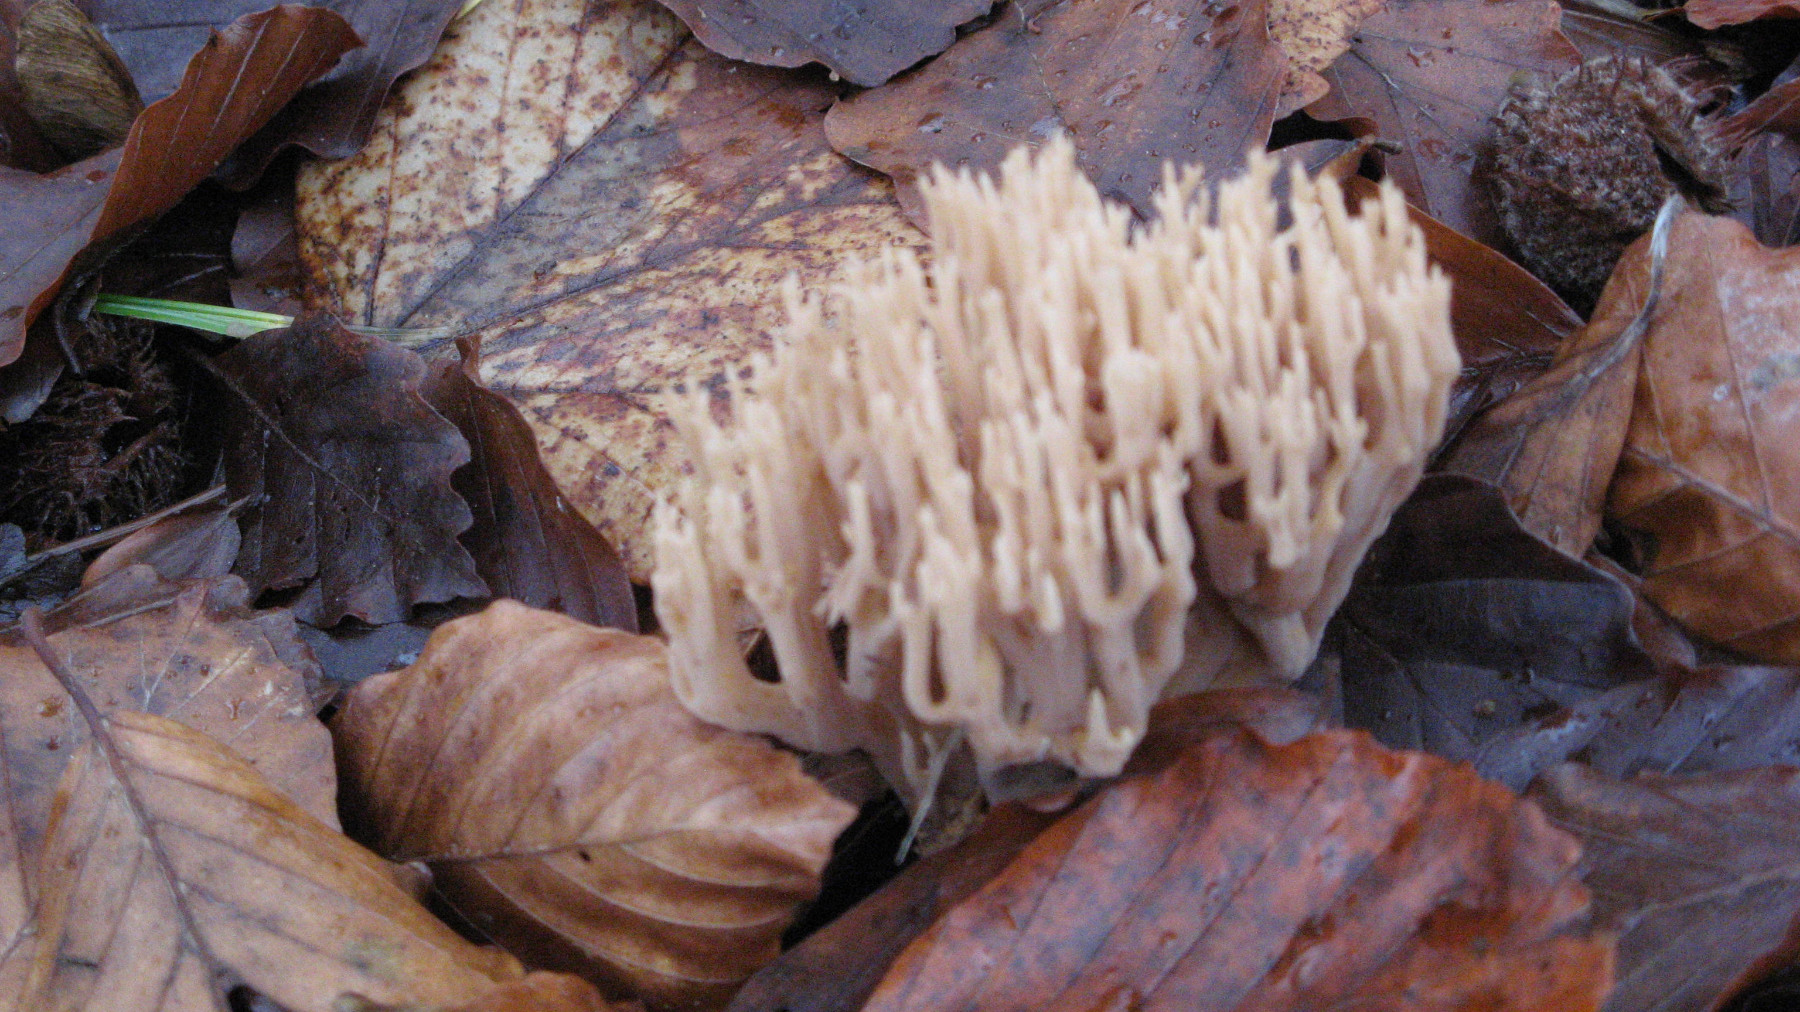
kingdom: Fungi
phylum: Basidiomycota
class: Agaricomycetes
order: Gomphales
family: Gomphaceae
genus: Ramaria
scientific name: Ramaria stricta
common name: rank koralsvamp
